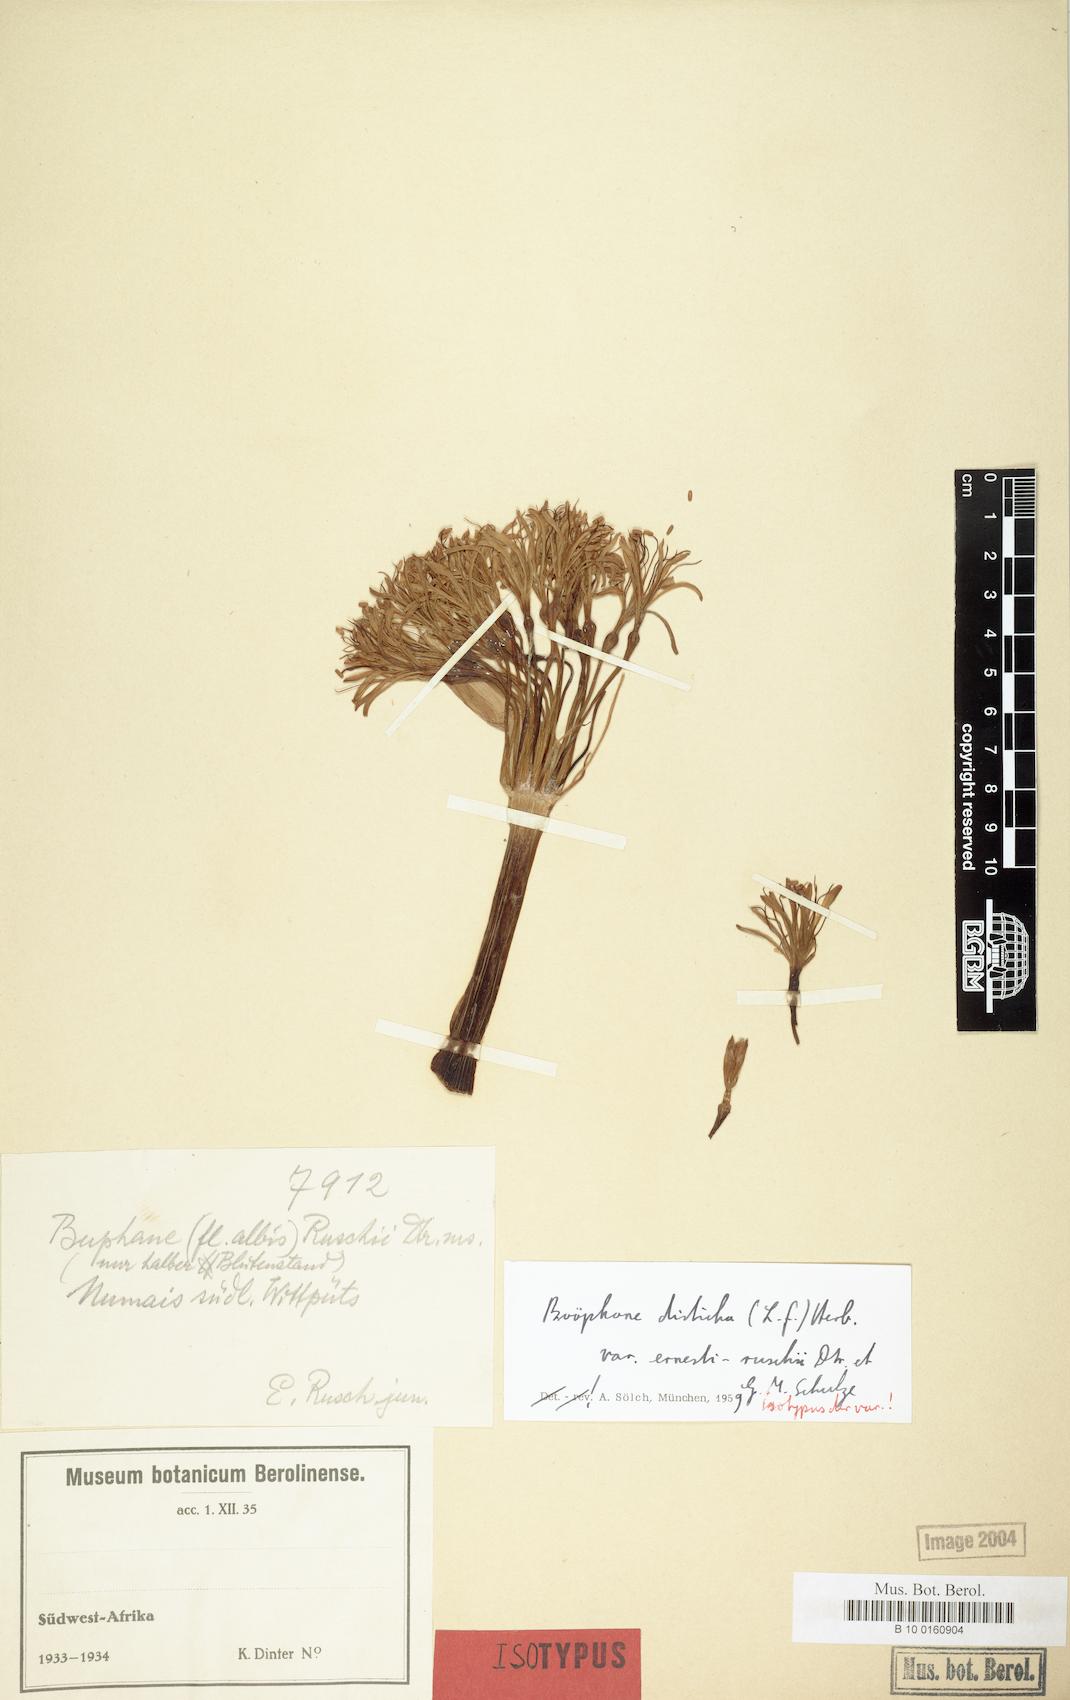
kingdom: Plantae
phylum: Tracheophyta
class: Liliopsida
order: Asparagales
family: Amaryllidaceae
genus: Boophone
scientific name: Boophone haemanthoides
